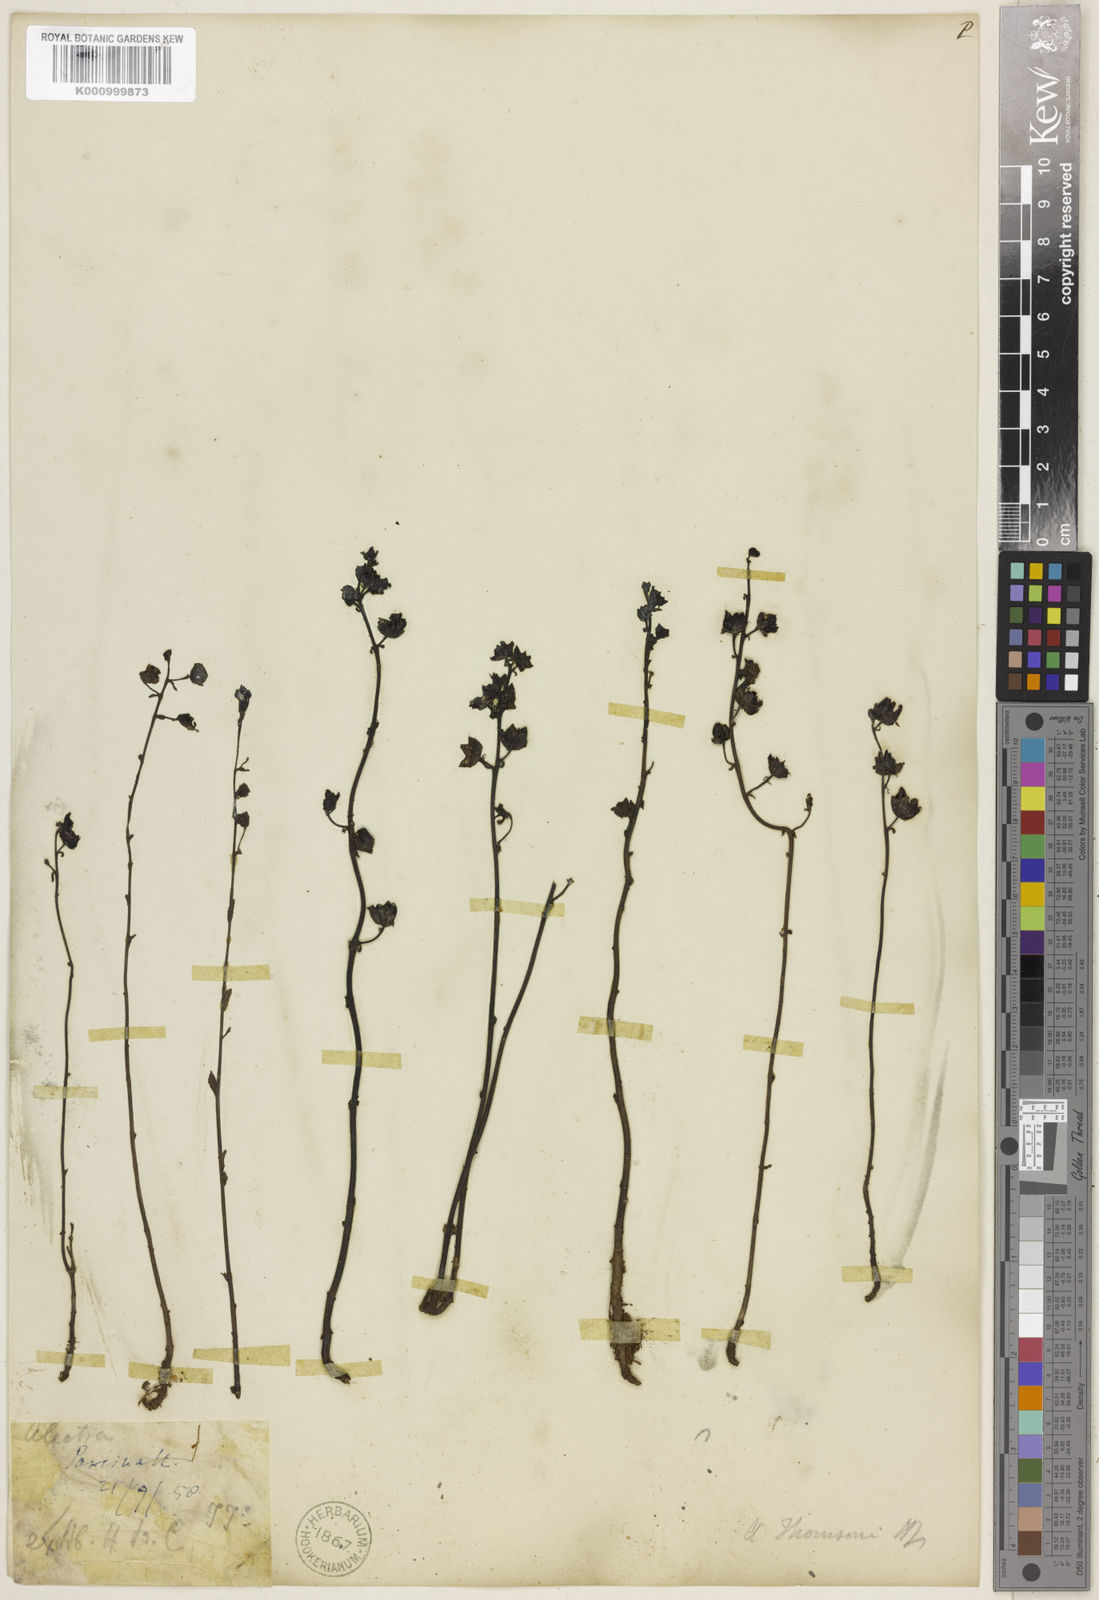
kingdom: Plantae
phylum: Tracheophyta
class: Magnoliopsida
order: Lamiales
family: Orobanchaceae
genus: Alectra
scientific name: Alectra sessiliflora
